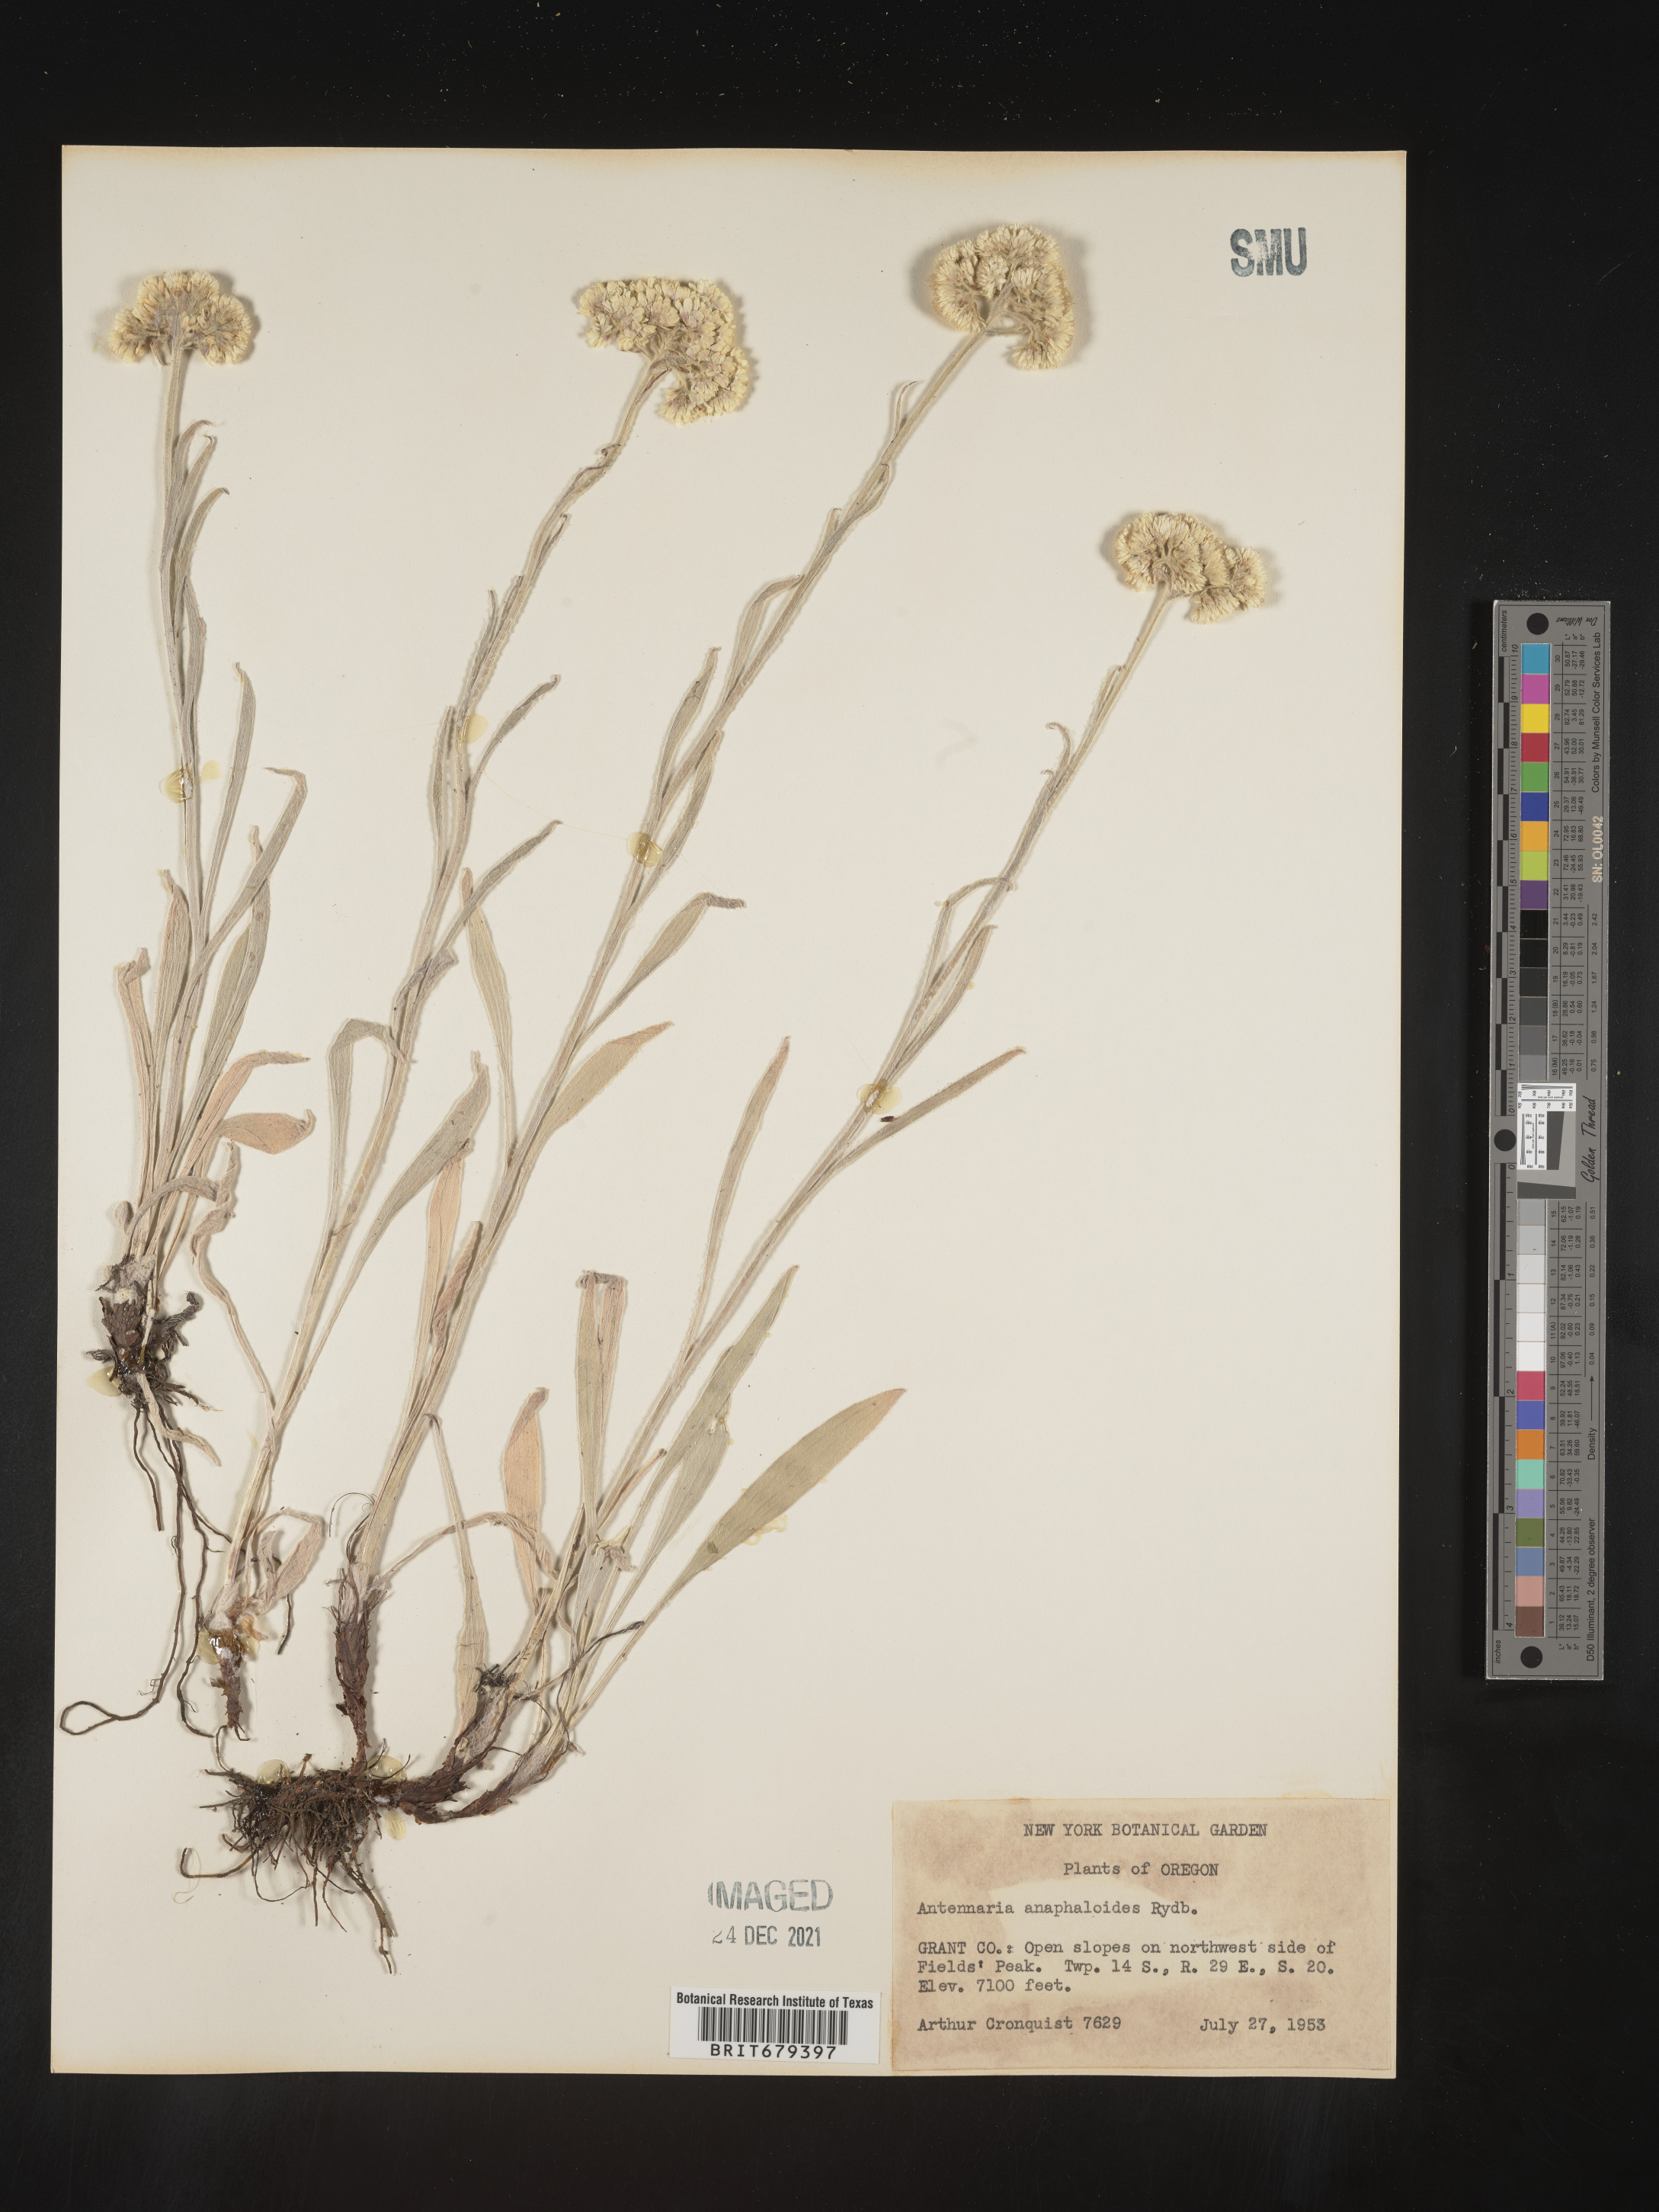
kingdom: Plantae
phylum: Tracheophyta
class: Magnoliopsida
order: Asterales
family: Asteraceae
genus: Antennaria
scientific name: Antennaria anaphaloides
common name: Tall pussytoes
